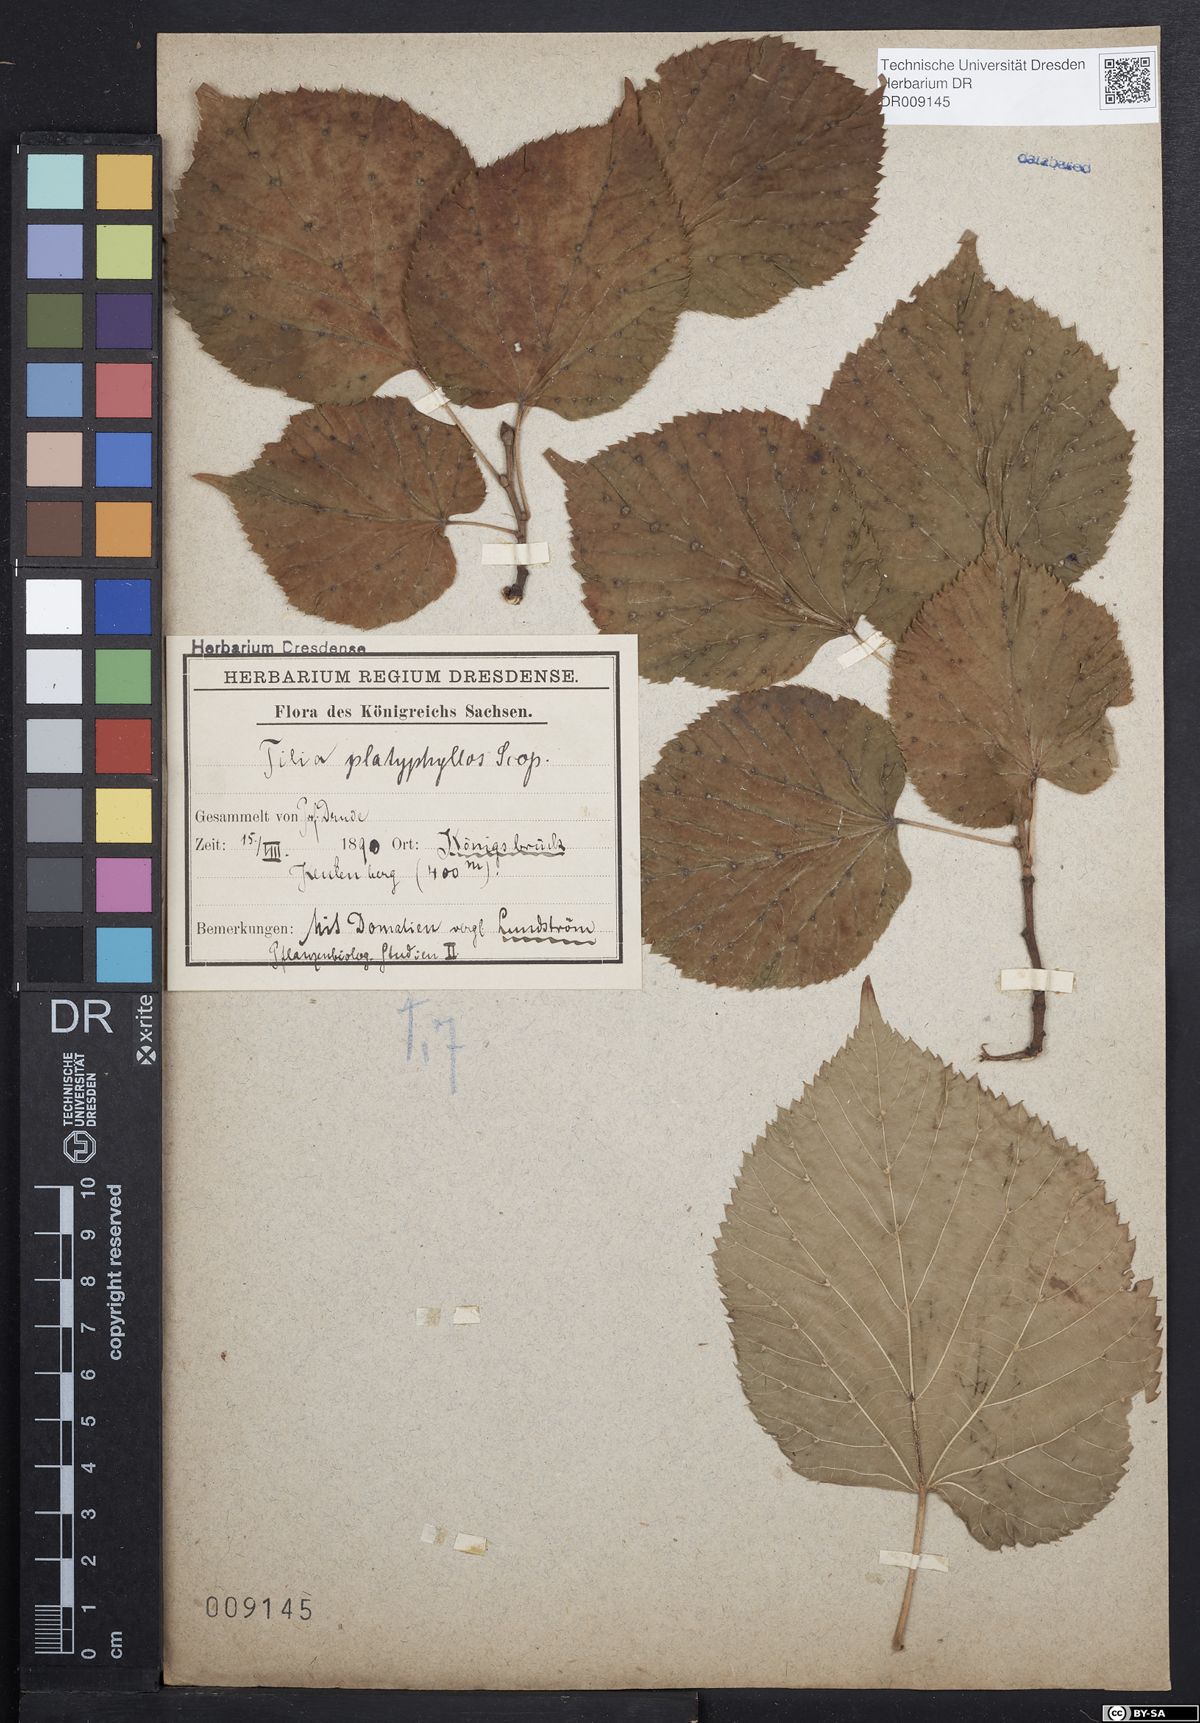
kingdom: Plantae
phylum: Tracheophyta
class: Magnoliopsida
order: Malvales
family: Malvaceae
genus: Tilia
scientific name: Tilia platyphyllos
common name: Large-leaved lime
